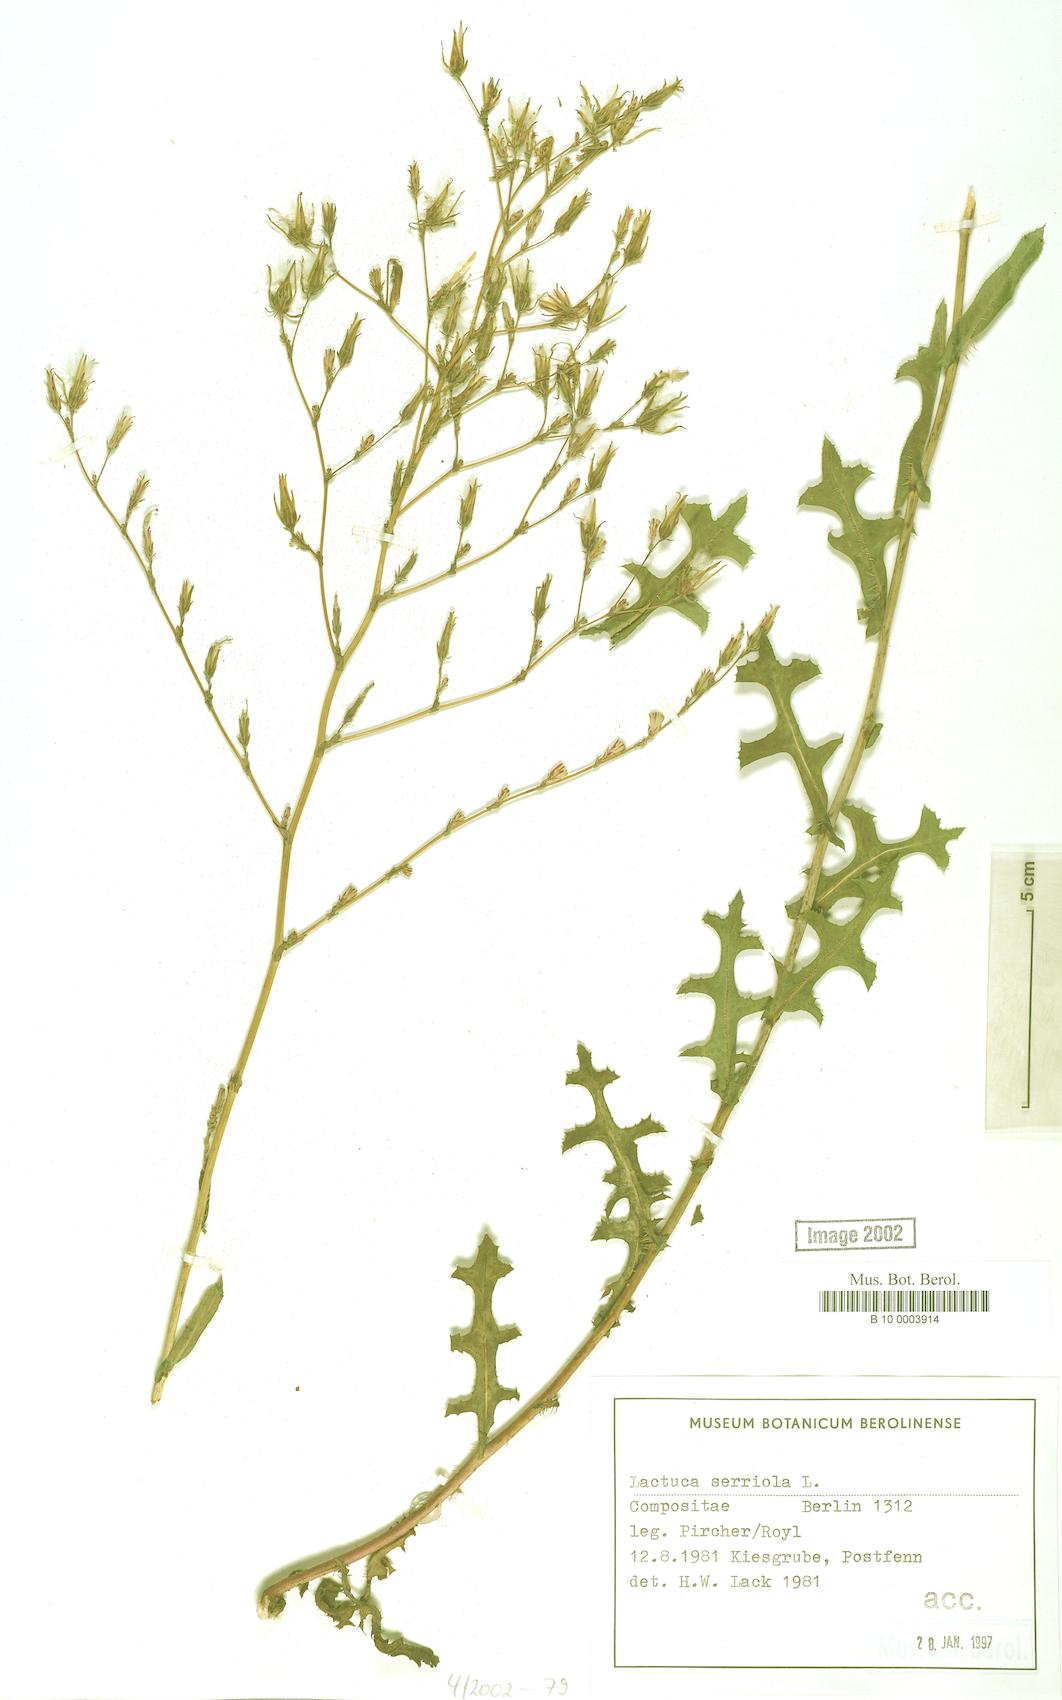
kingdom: Plantae
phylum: Tracheophyta
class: Magnoliopsida
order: Asterales
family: Asteraceae
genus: Lactuca
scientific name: Lactuca serriola
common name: Prickly lettuce
